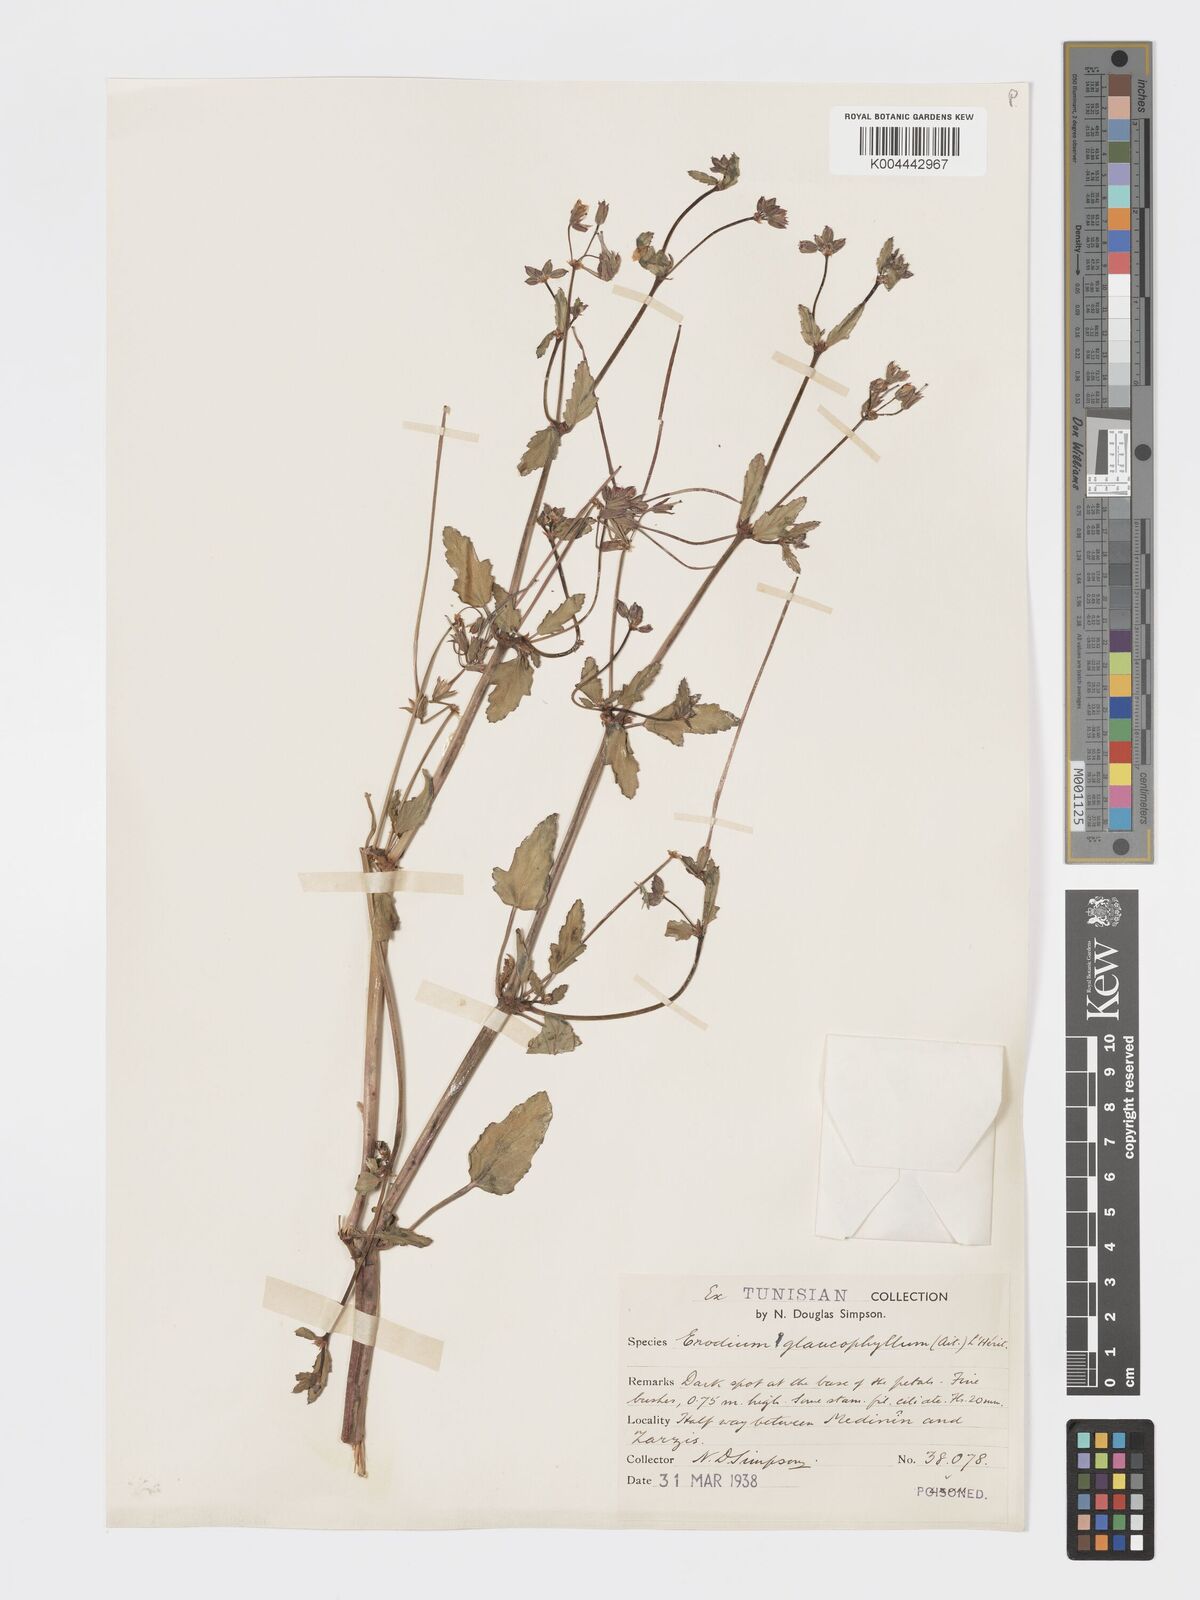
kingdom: Plantae
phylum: Tracheophyta
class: Magnoliopsida
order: Geraniales
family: Geraniaceae
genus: Erodium
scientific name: Erodium glaucophyllum
